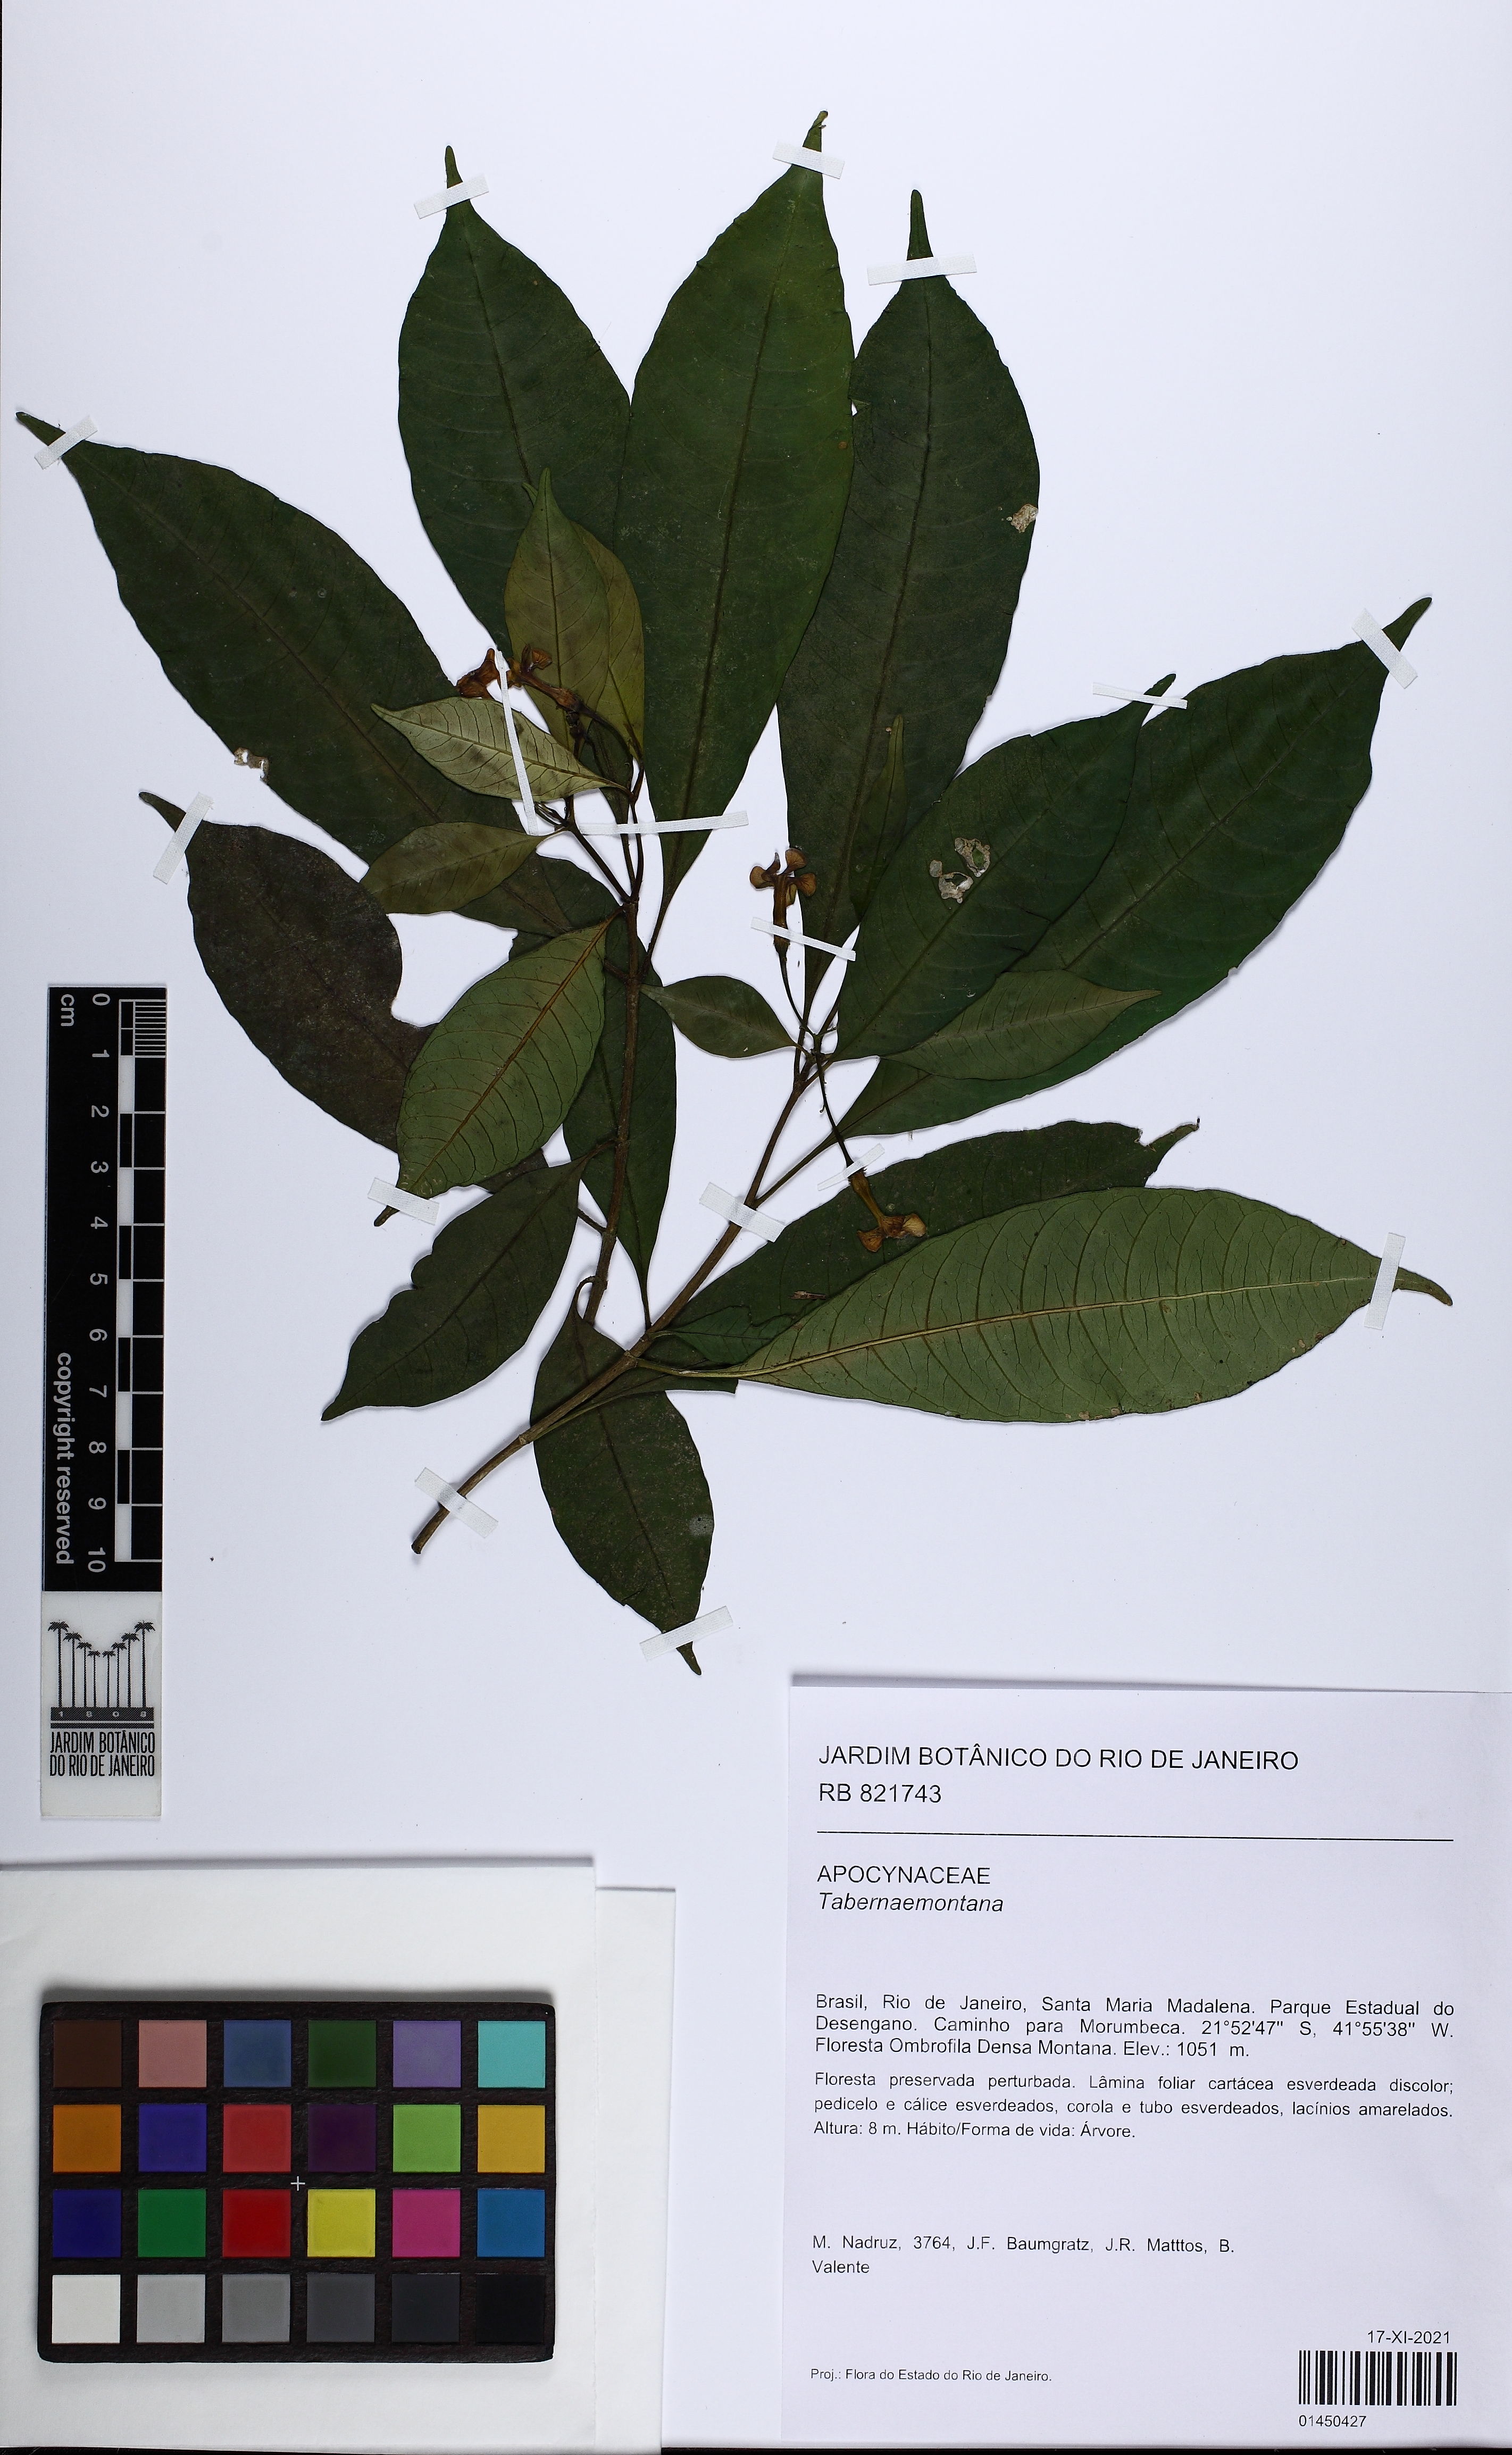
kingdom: Plantae
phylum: Tracheophyta
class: Magnoliopsida
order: Gentianales
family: Apocynaceae
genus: Tabernaemontana
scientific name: Tabernaemontana
